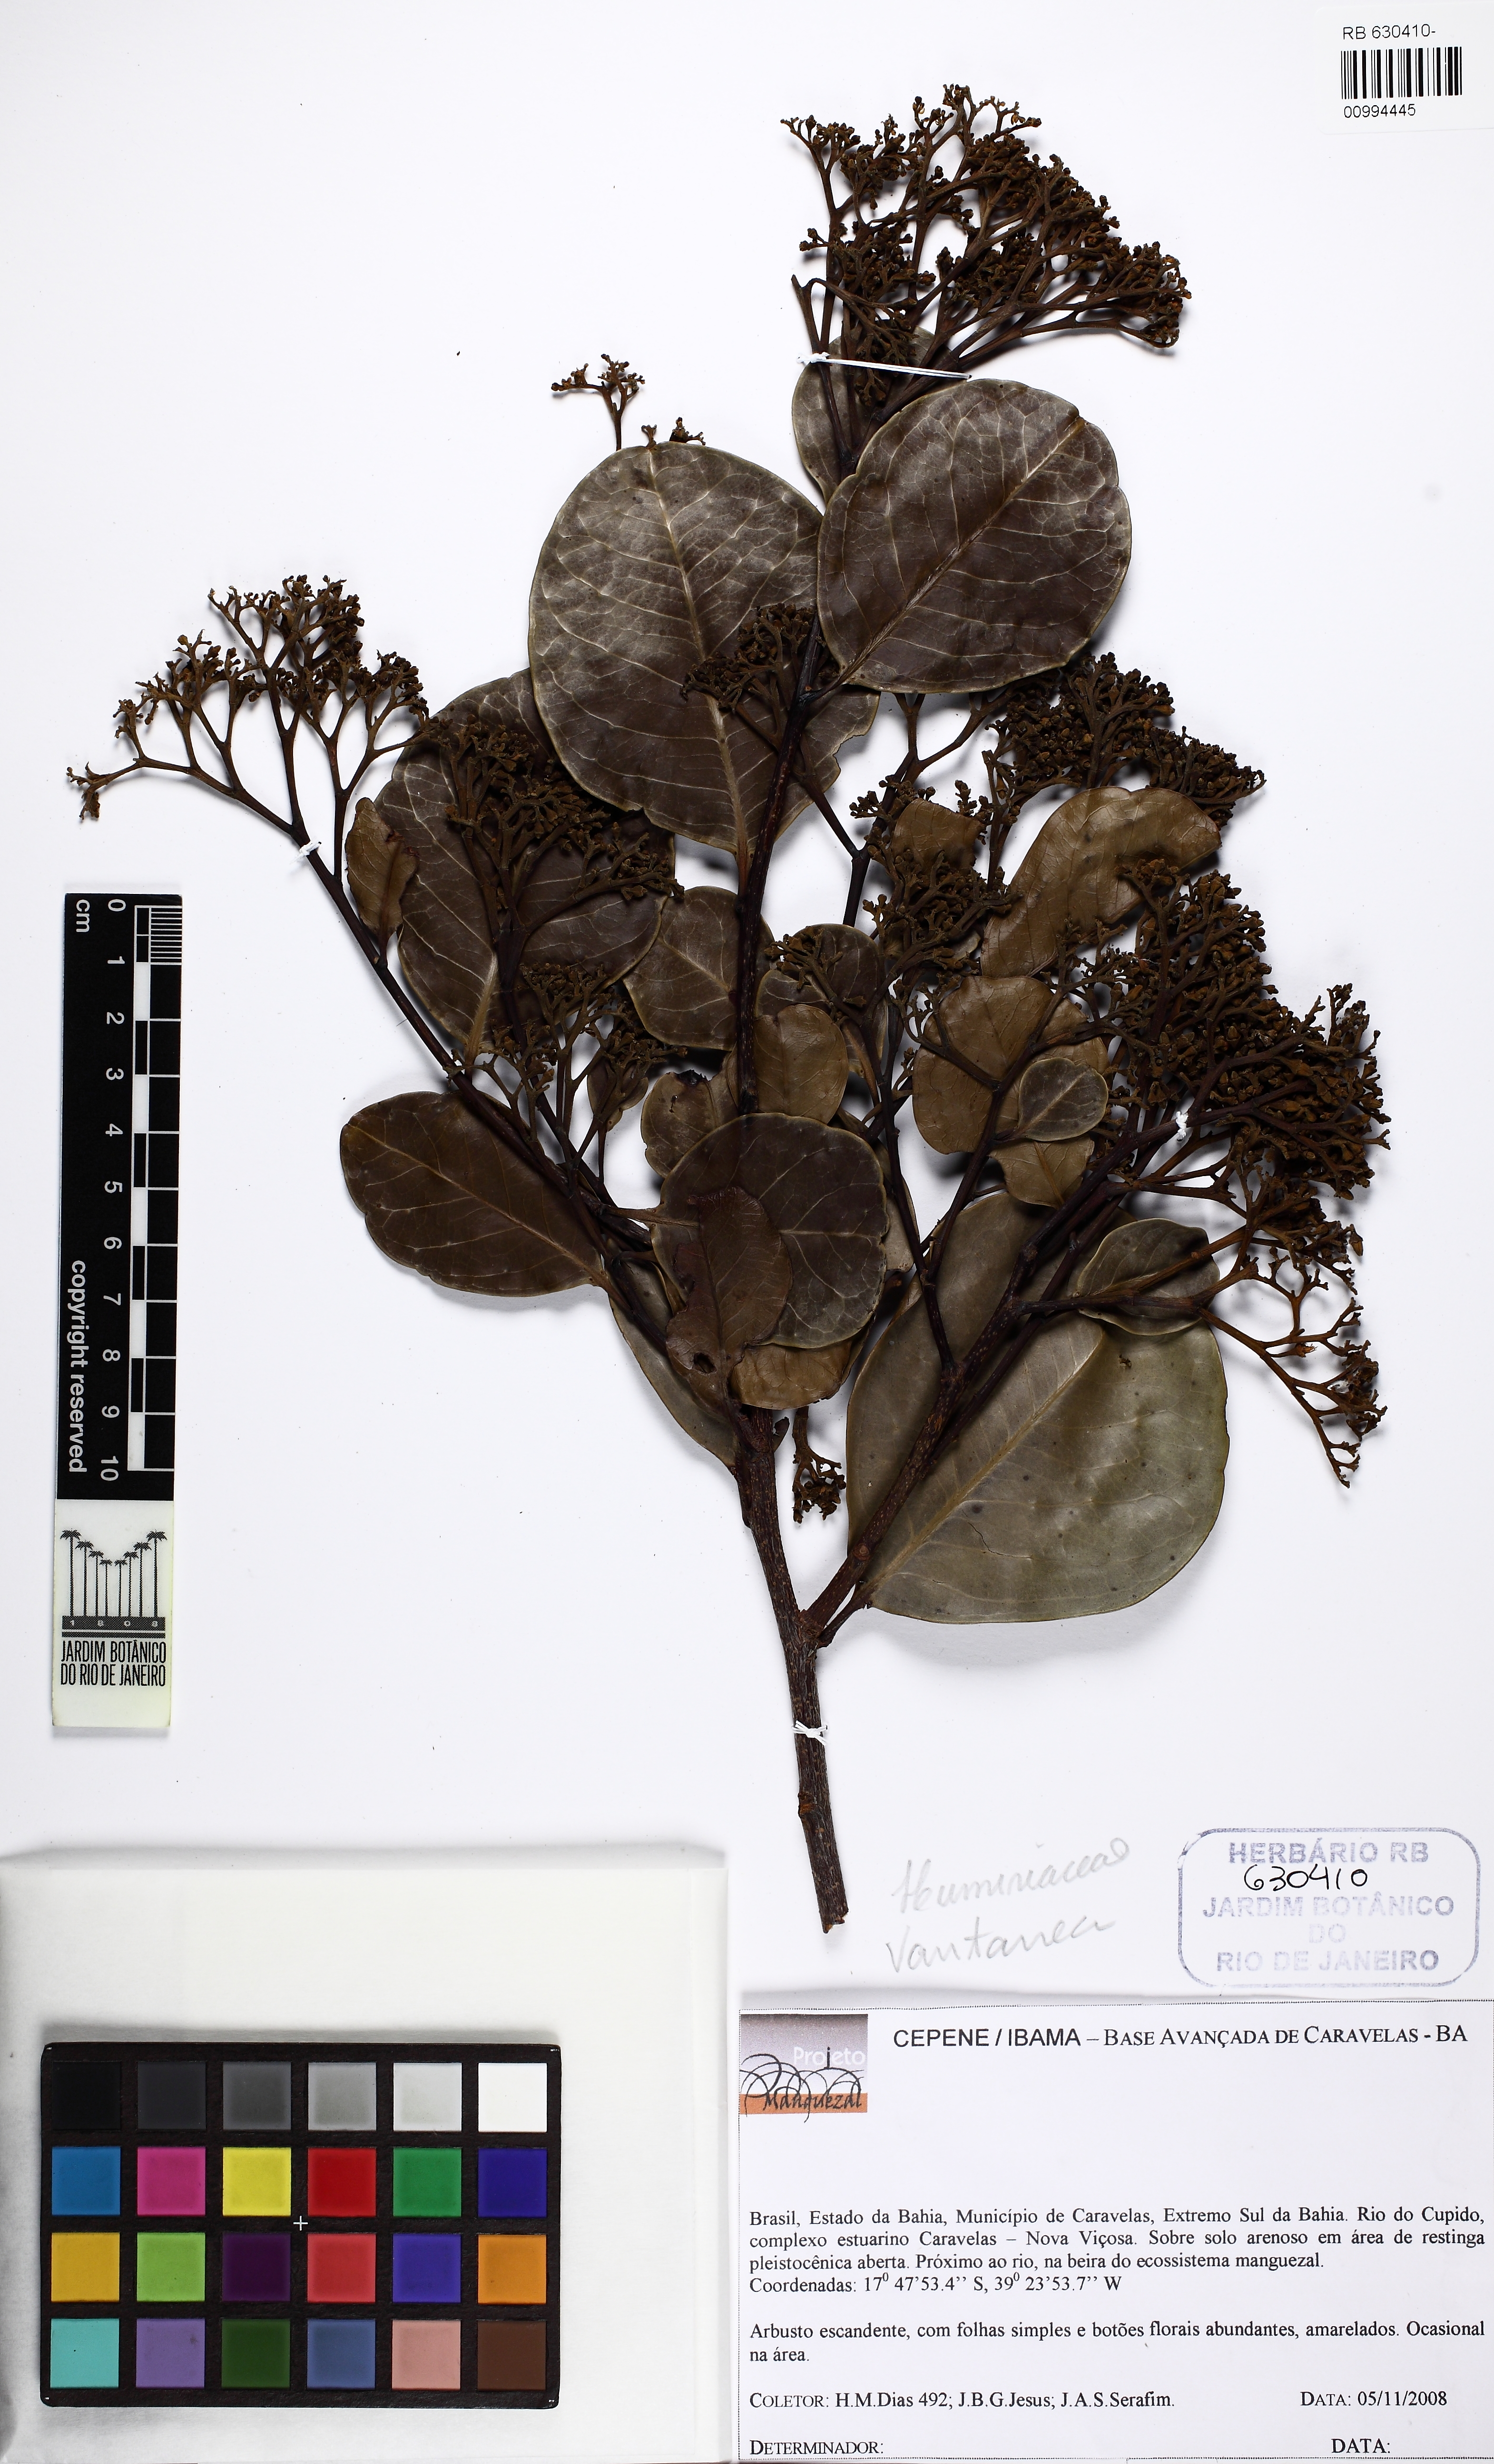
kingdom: Plantae
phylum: Tracheophyta
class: Magnoliopsida
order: Malpighiales
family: Humiriaceae
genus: Vantanea
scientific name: Vantanea bahiaensis
